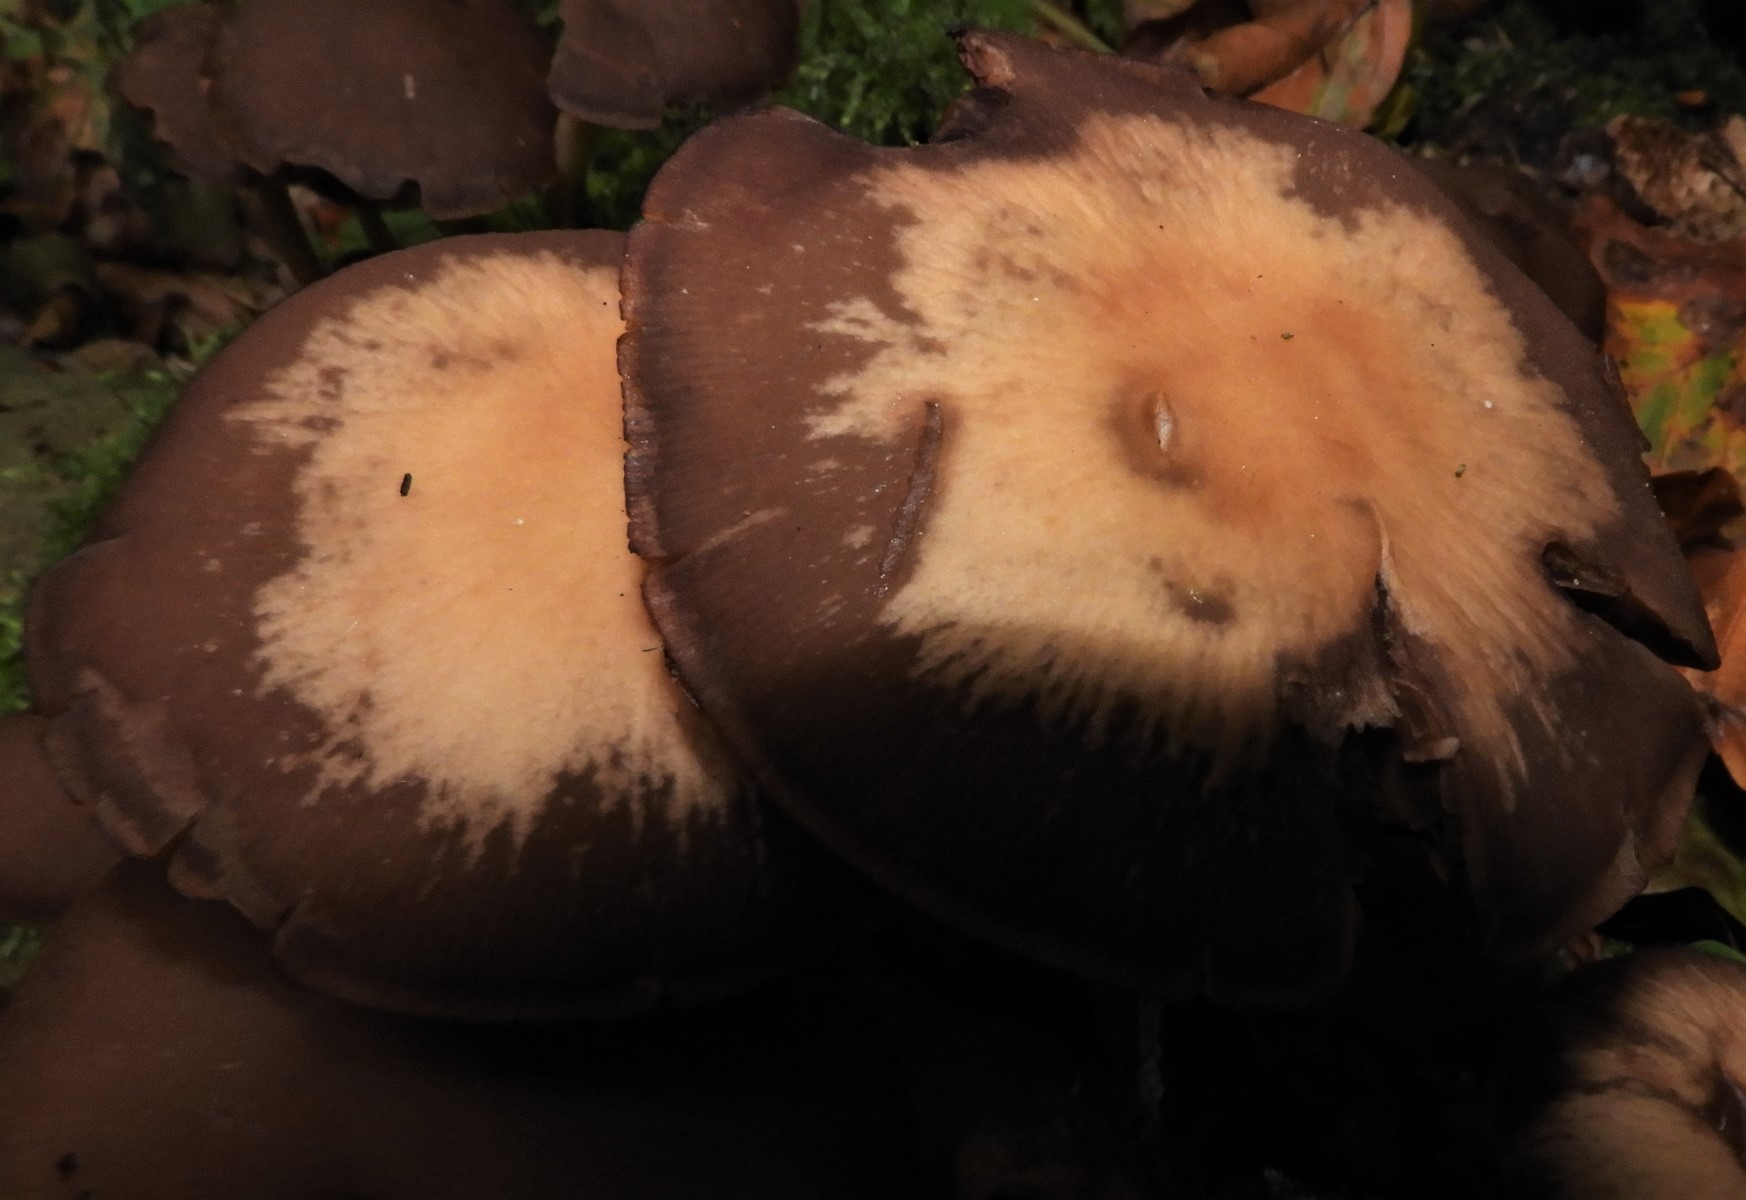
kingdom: Fungi
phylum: Basidiomycota
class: Agaricomycetes
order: Agaricales
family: Psathyrellaceae
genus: Psathyrella
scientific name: Psathyrella piluliformis
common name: lysstokket mørkhat
